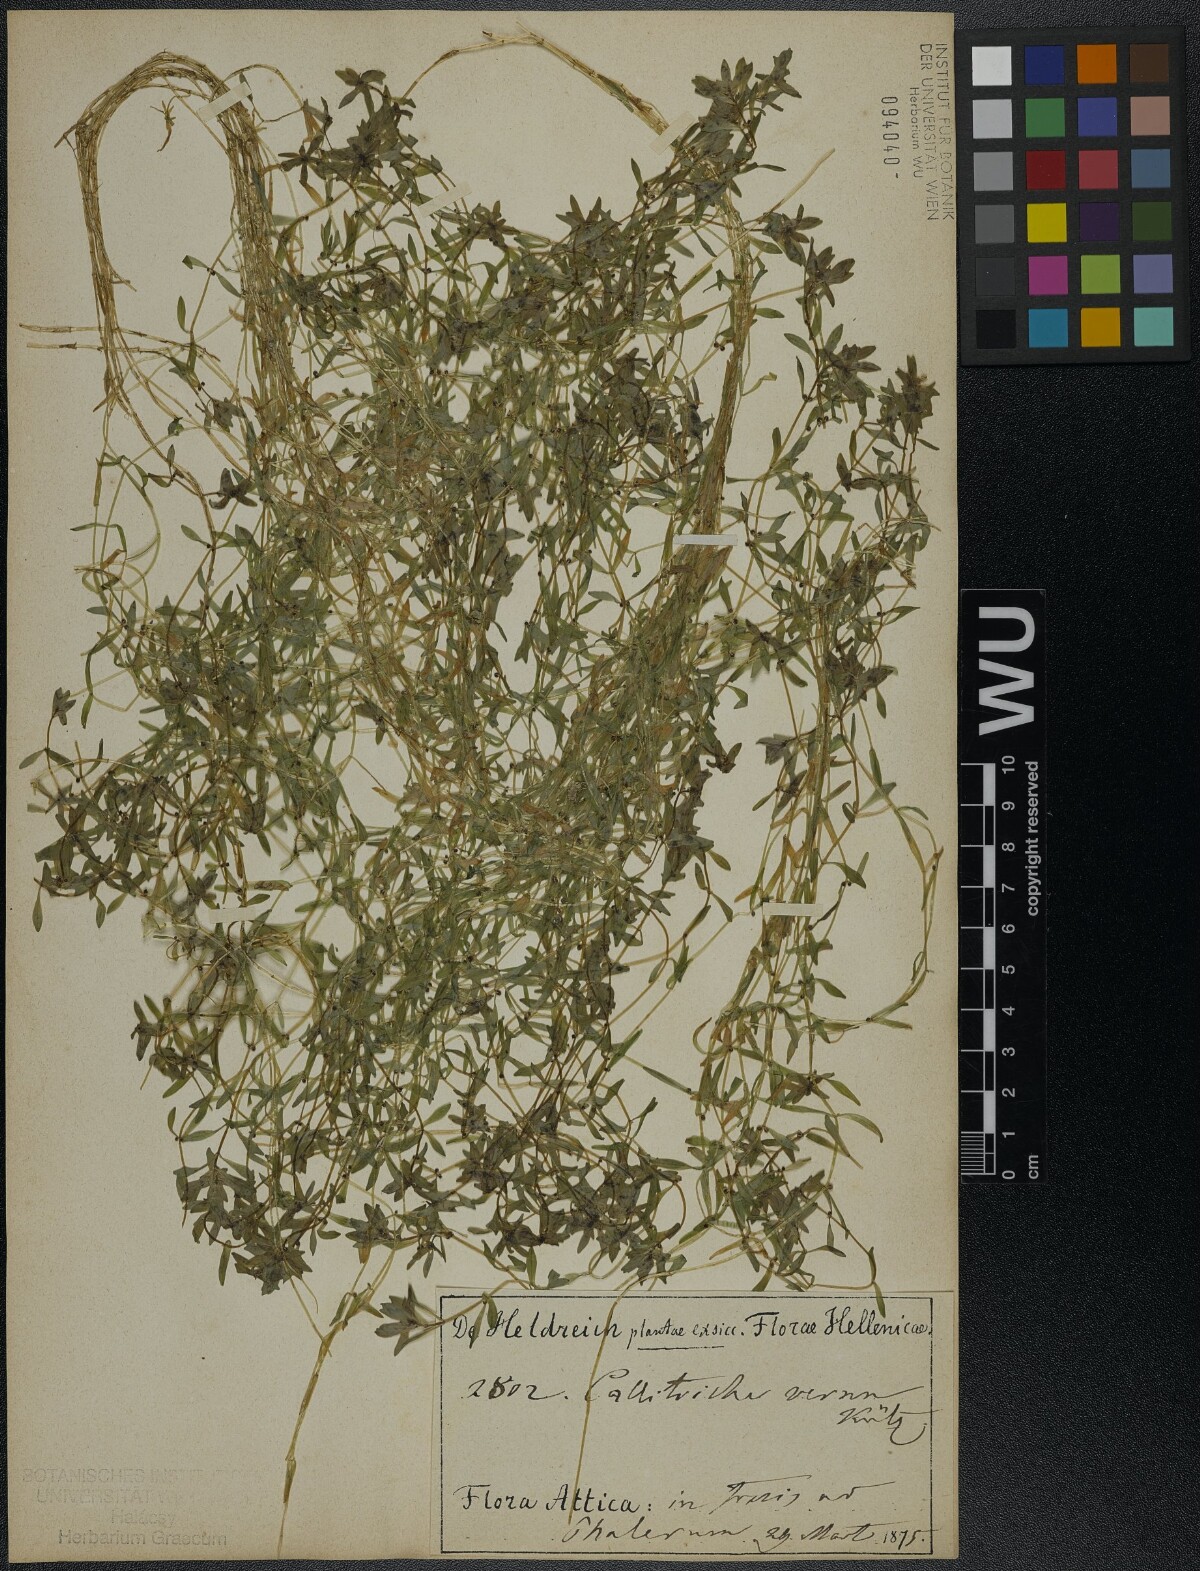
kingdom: Plantae
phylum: Tracheophyta
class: Magnoliopsida
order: Lamiales
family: Plantaginaceae
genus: Callitriche
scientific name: Callitriche lenisulca
